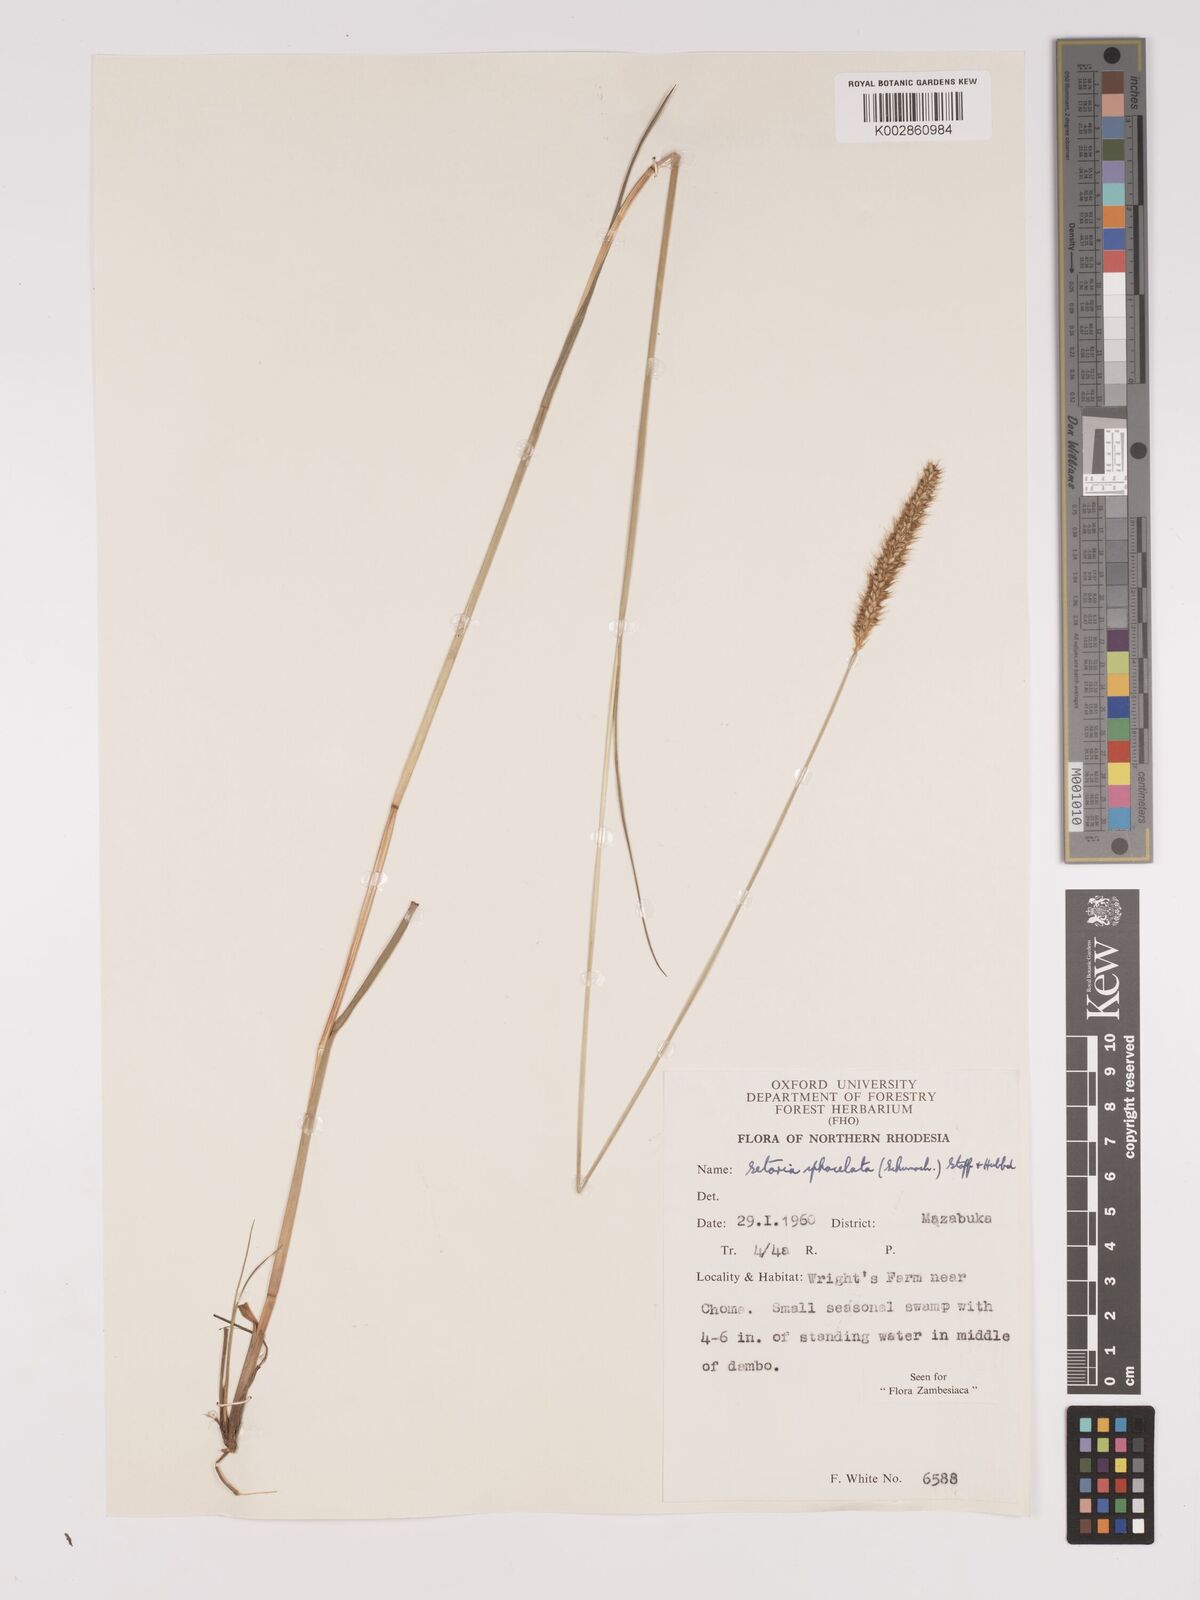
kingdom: Plantae
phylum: Tracheophyta
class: Liliopsida
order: Poales
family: Poaceae
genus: Setaria
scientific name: Setaria
